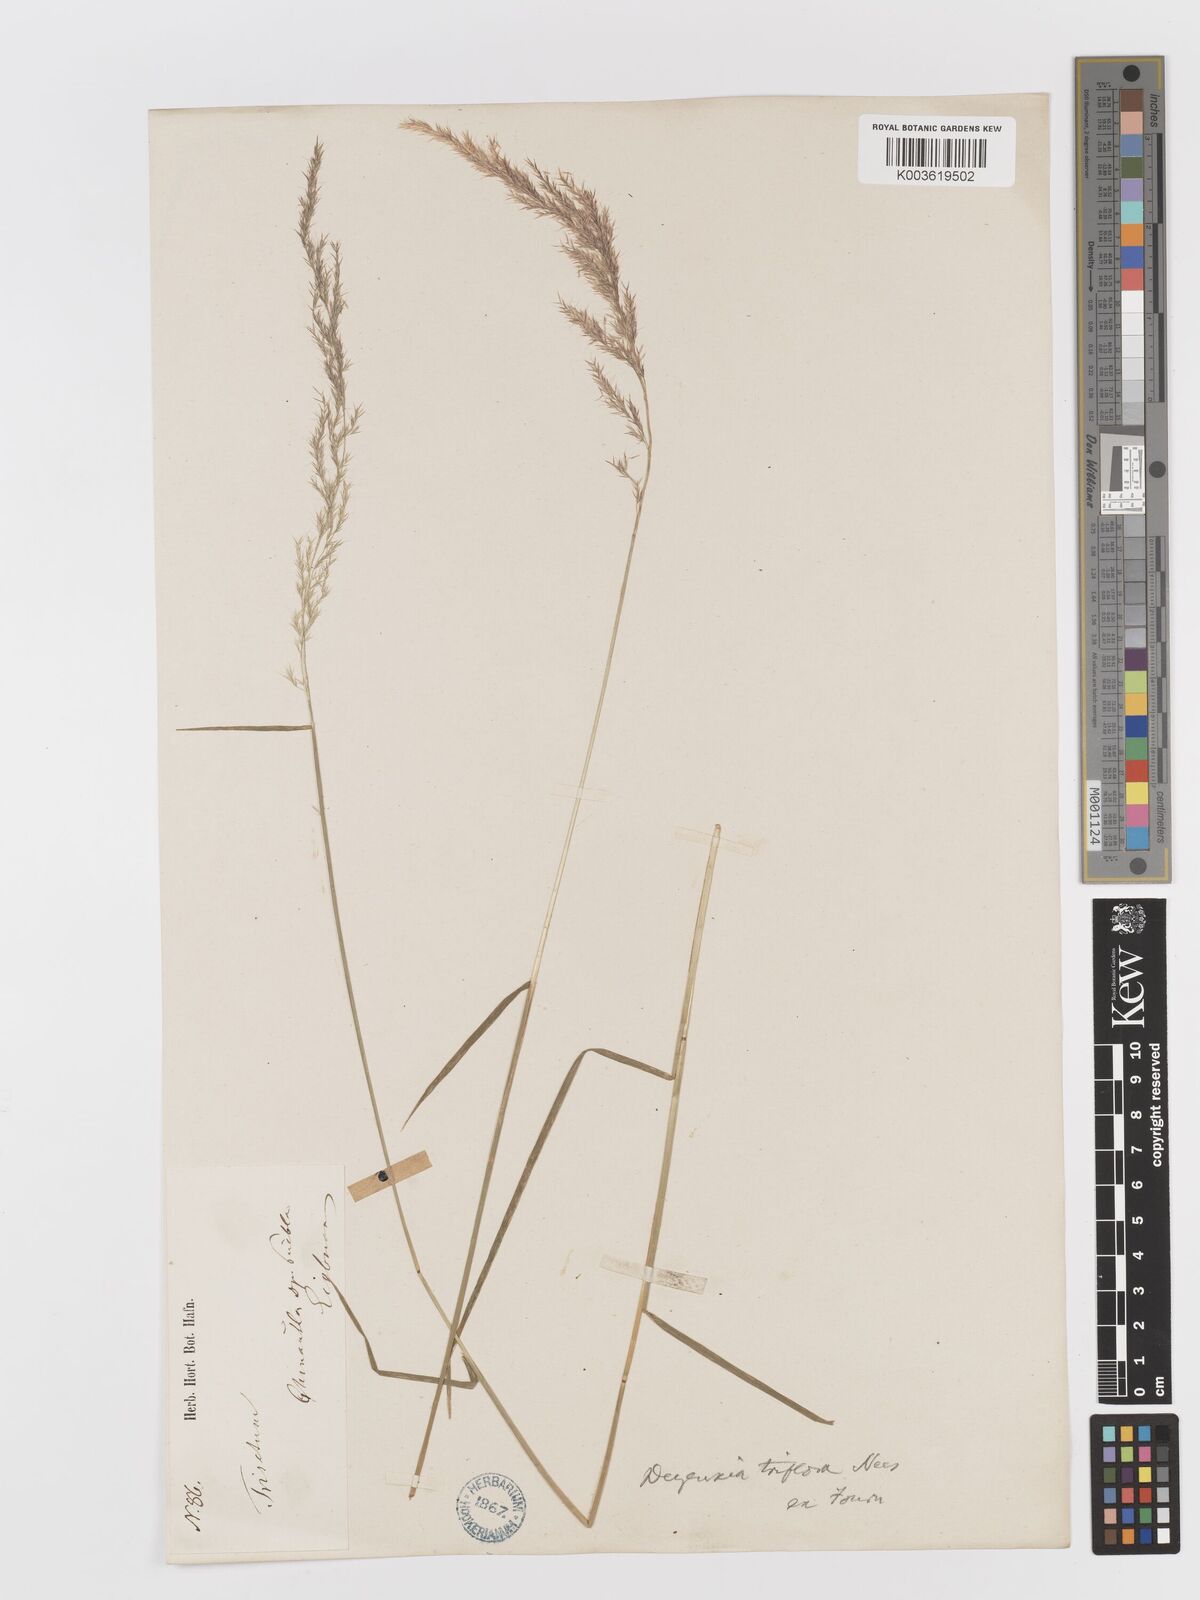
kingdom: Plantae
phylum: Tracheophyta
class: Liliopsida
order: Poales
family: Poaceae
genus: Peyritschia
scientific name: Peyritschia deyeuxioides
